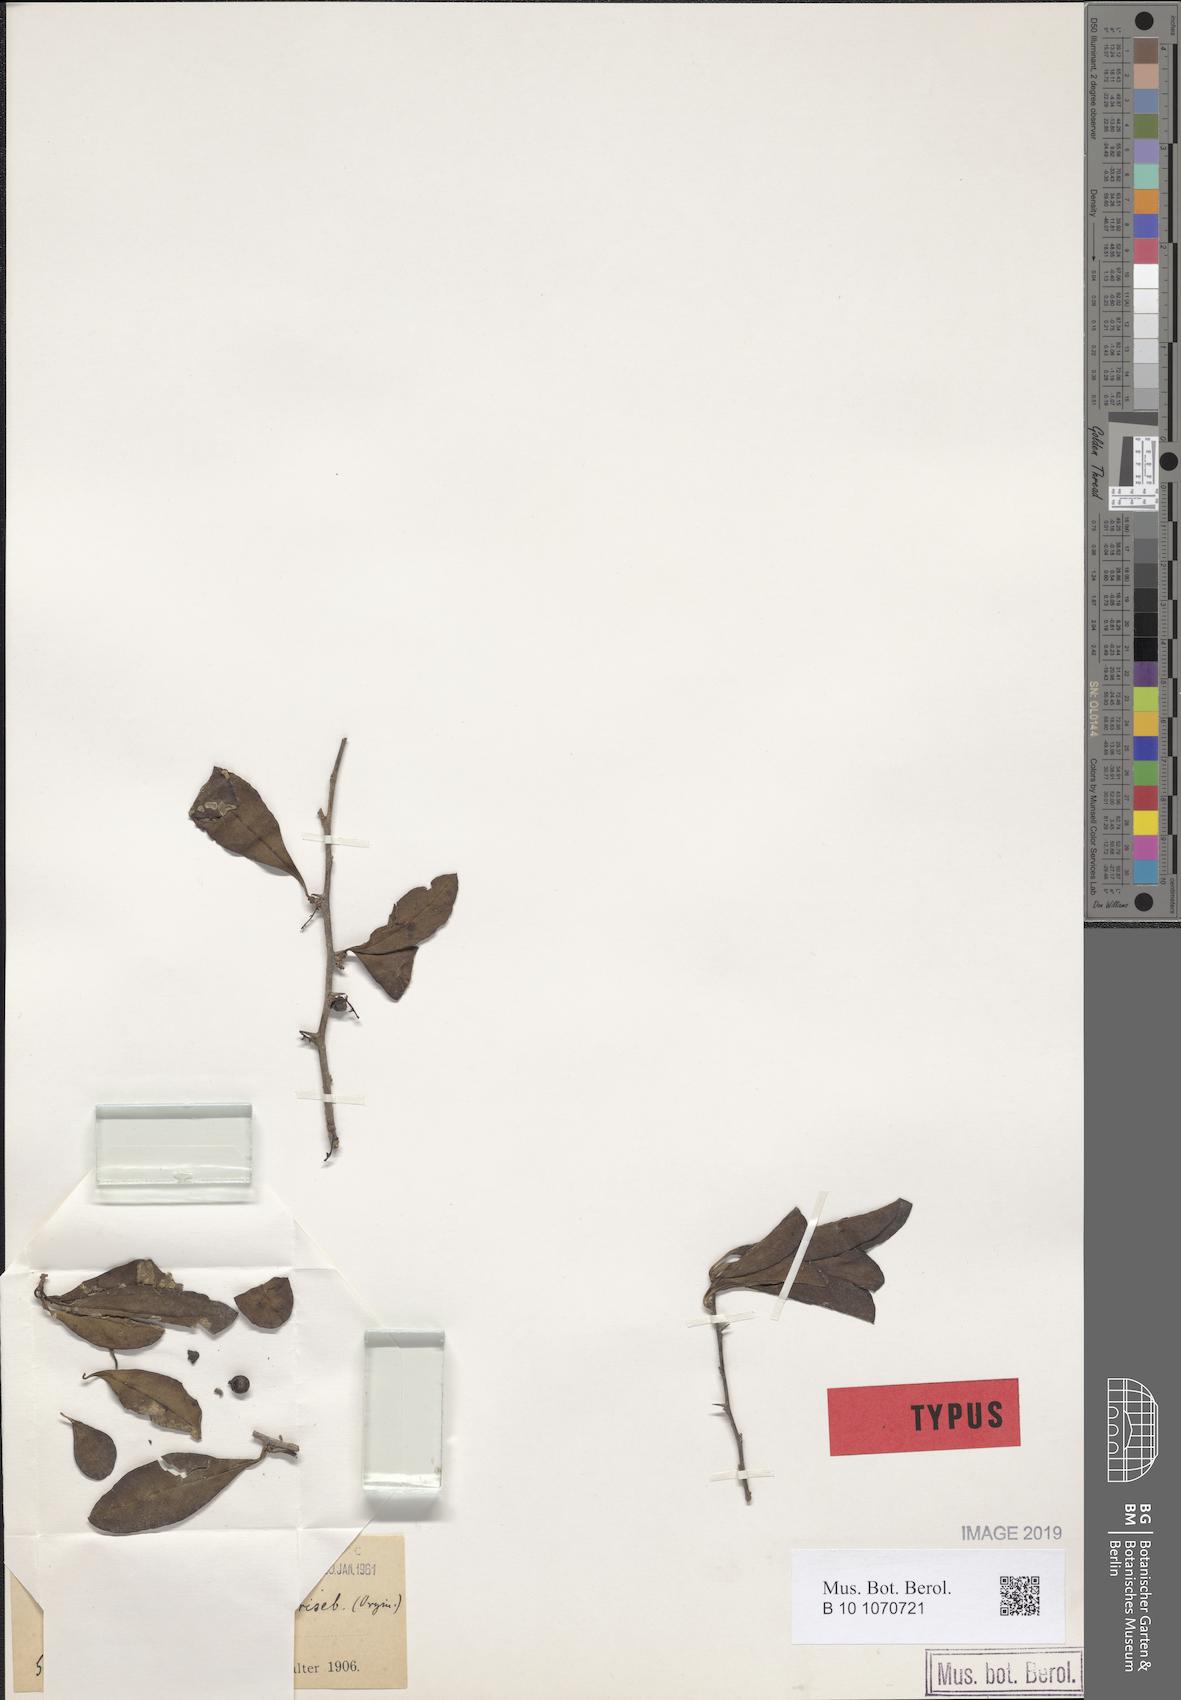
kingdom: Plantae
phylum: Tracheophyta
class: Magnoliopsida
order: Caryophyllales
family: Achatocarpaceae
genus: Achatocarpus
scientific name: Achatocarpus praecox
